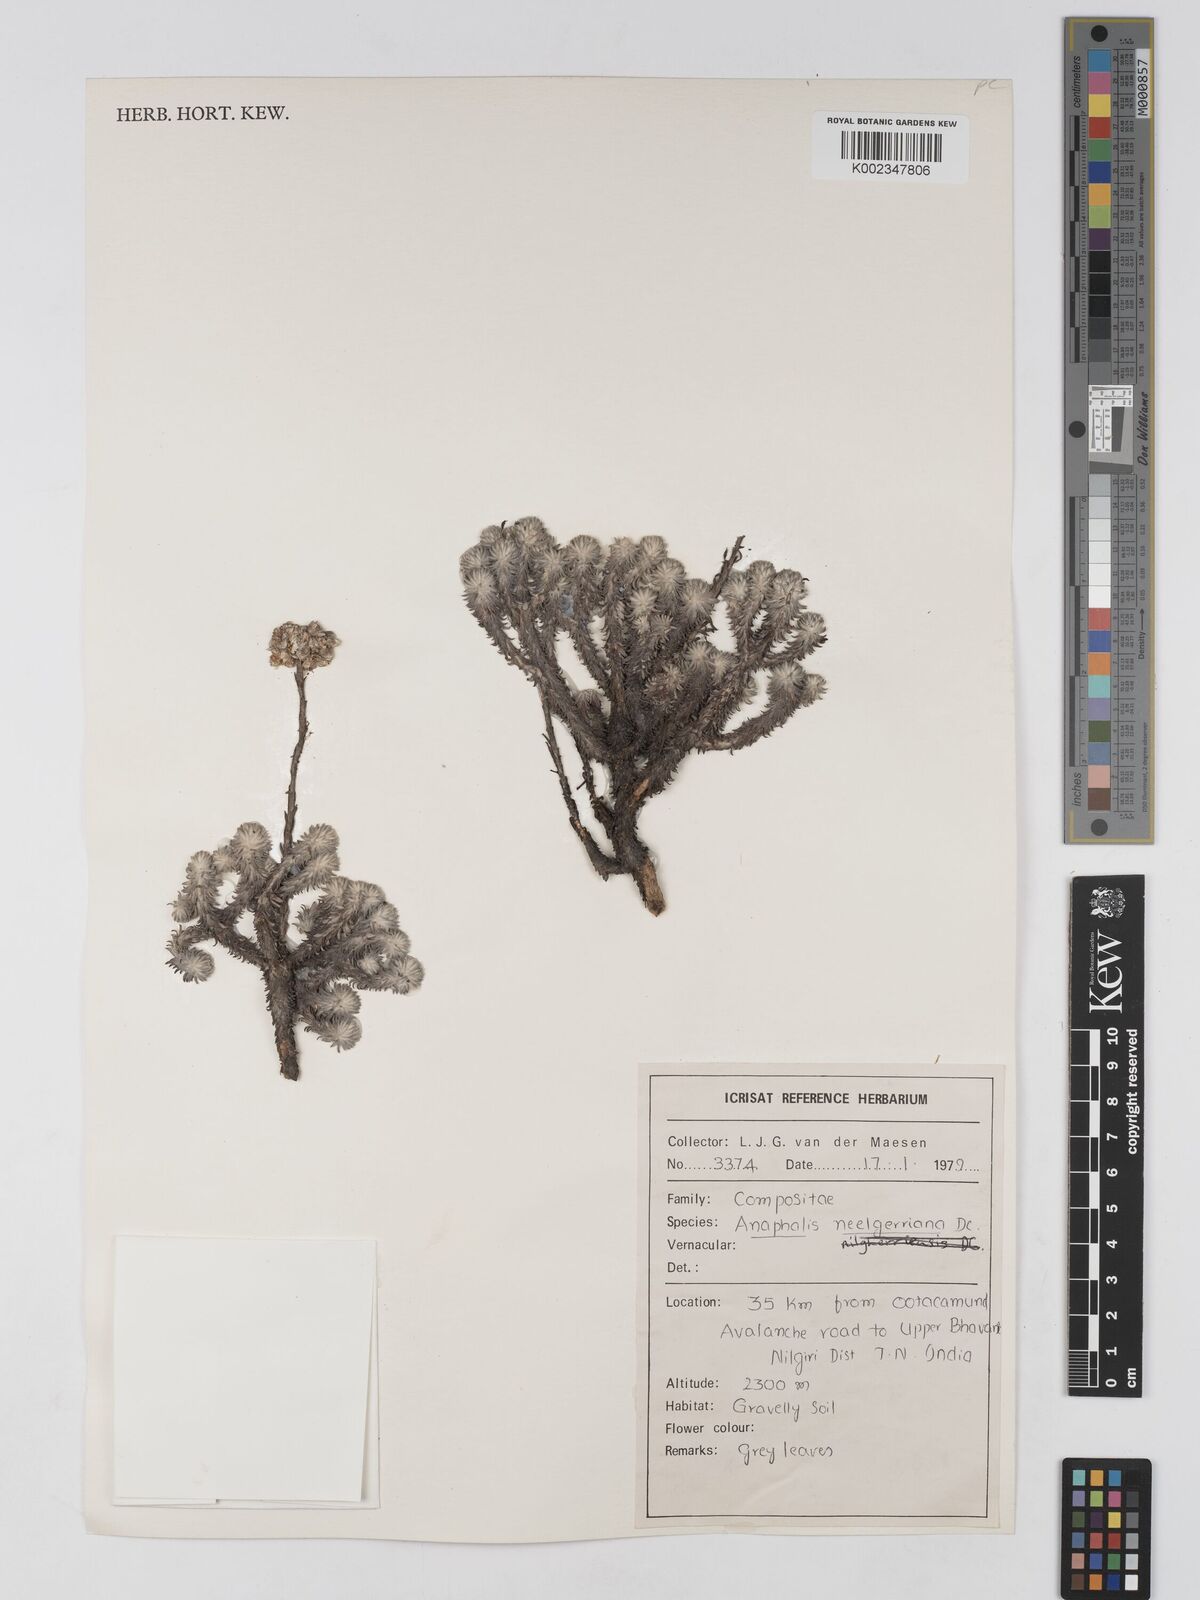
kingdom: Plantae
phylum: Tracheophyta
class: Magnoliopsida
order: Asterales
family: Asteraceae
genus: Anaphalis
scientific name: Anaphalis neelgerryana
